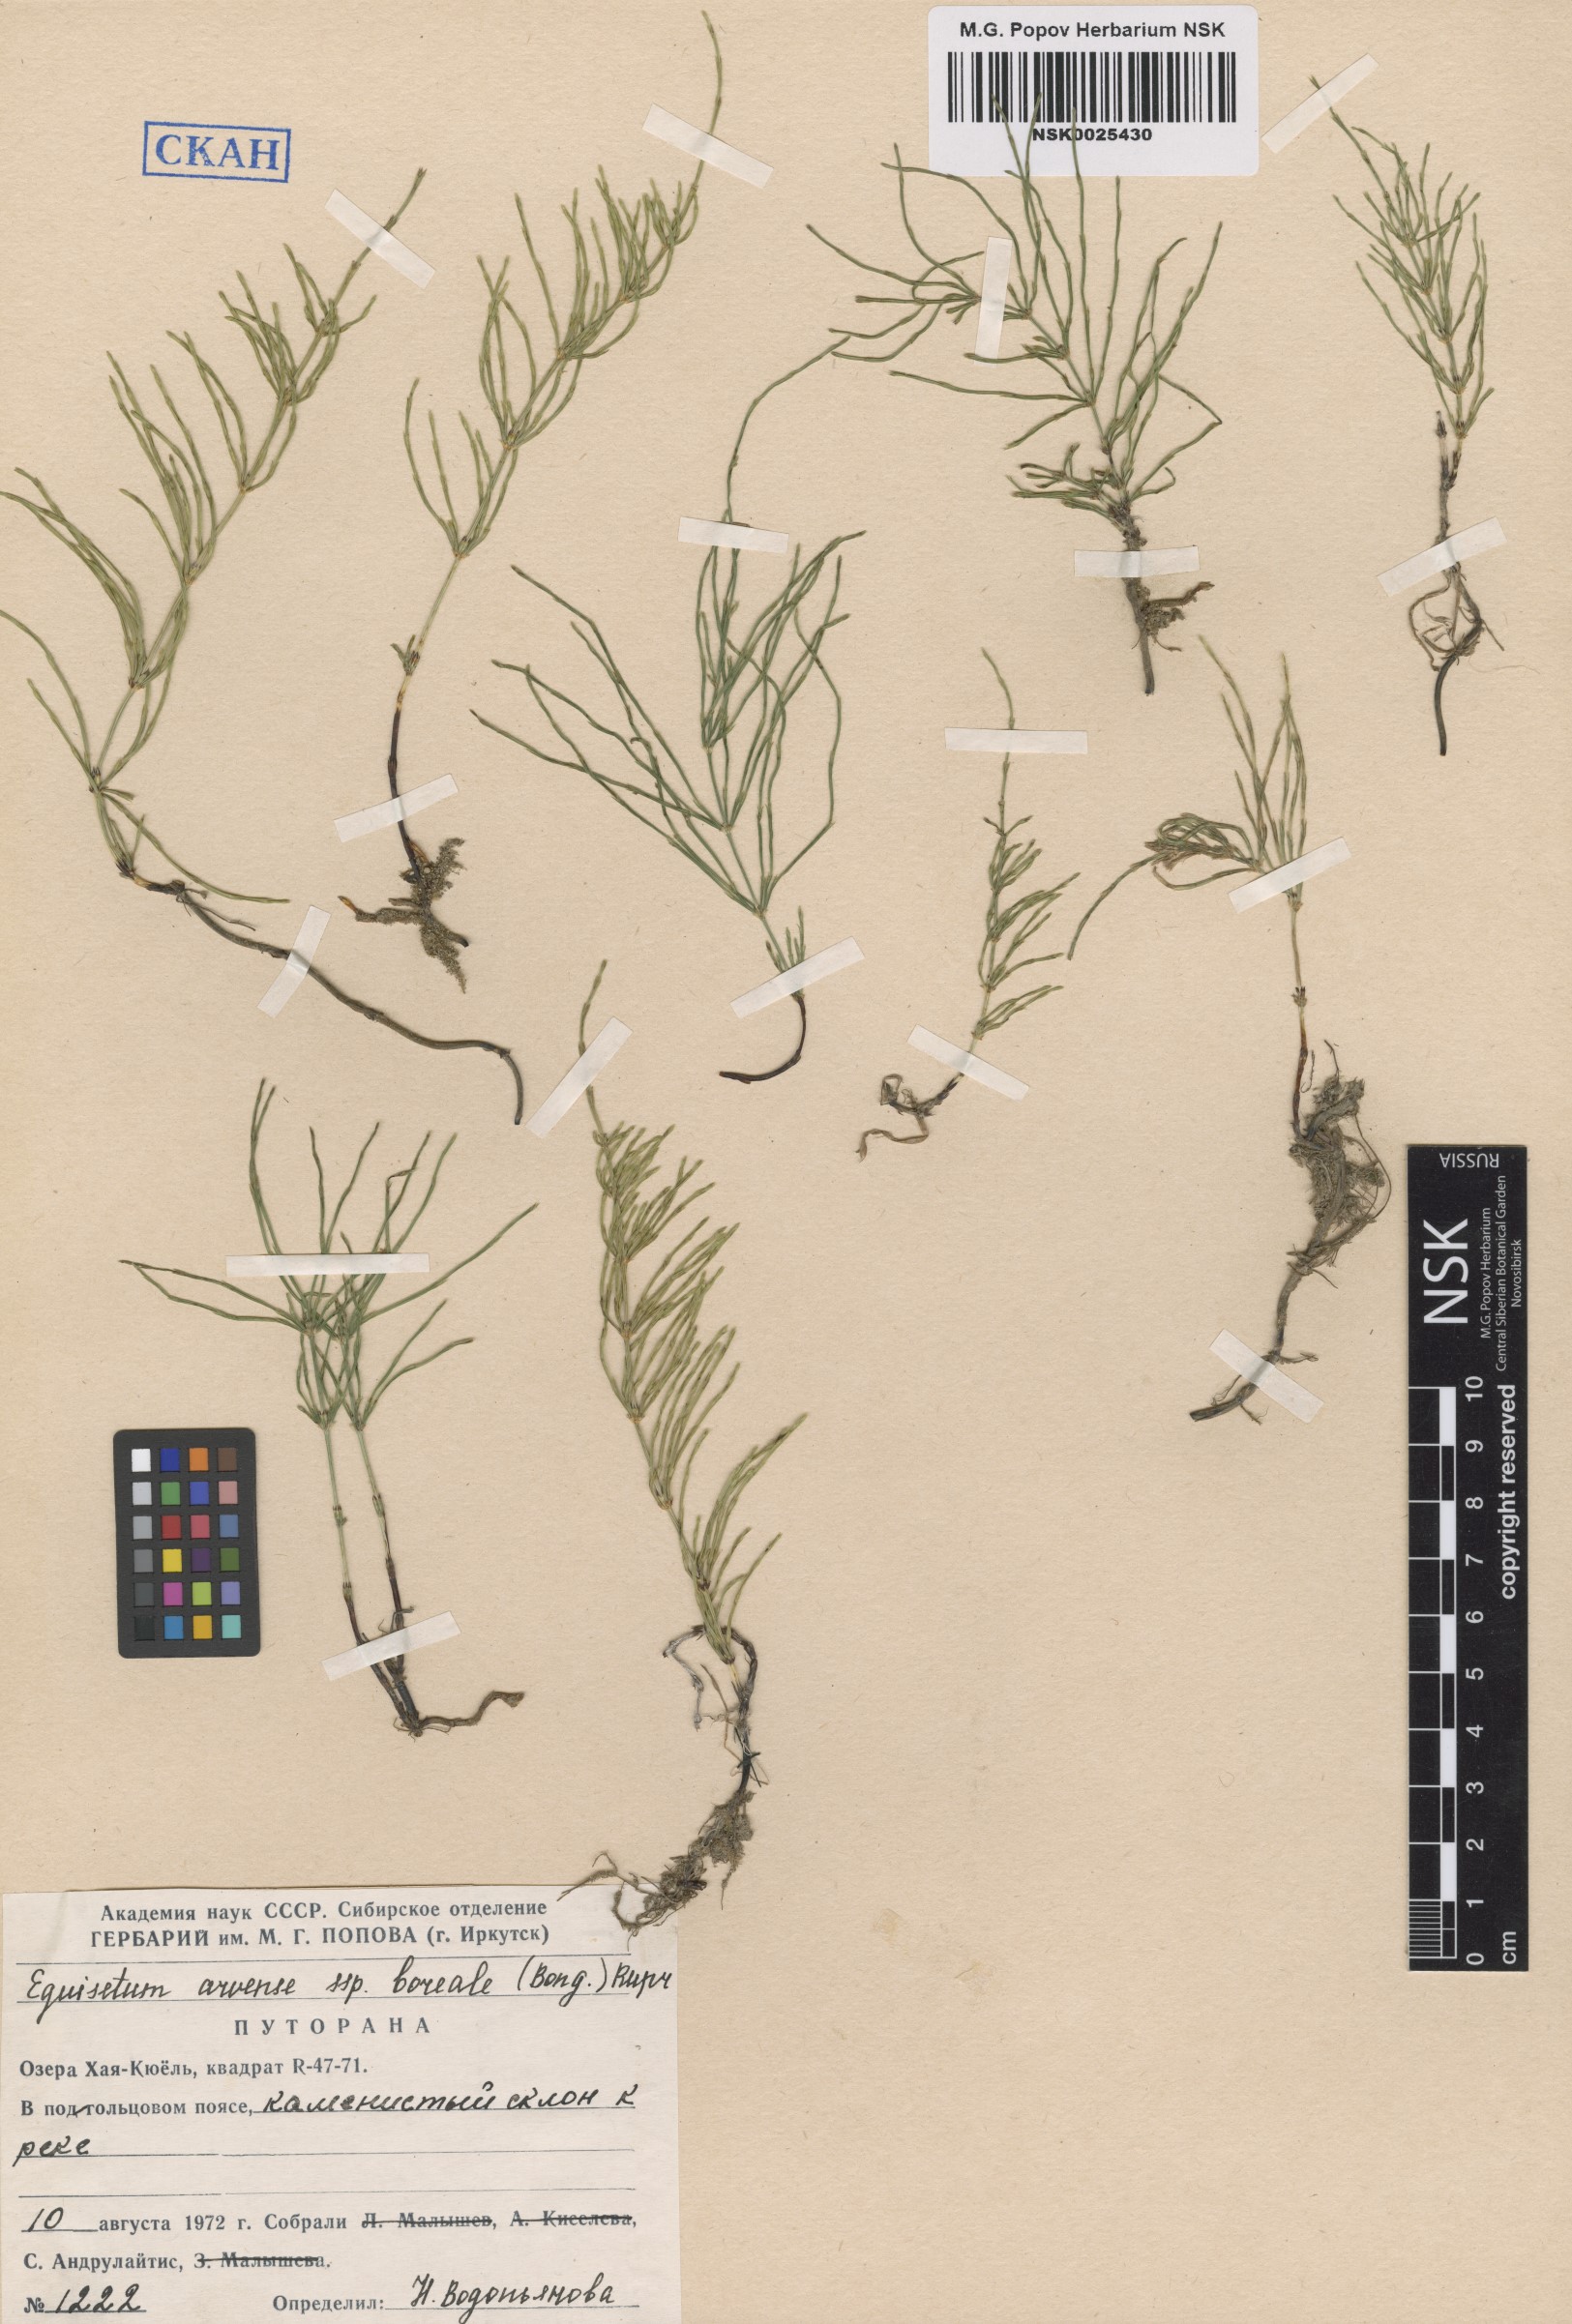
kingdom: Plantae
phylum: Tracheophyta
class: Polypodiopsida
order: Equisetales
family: Equisetaceae
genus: Equisetum
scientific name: Equisetum arvense
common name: Field horsetail
